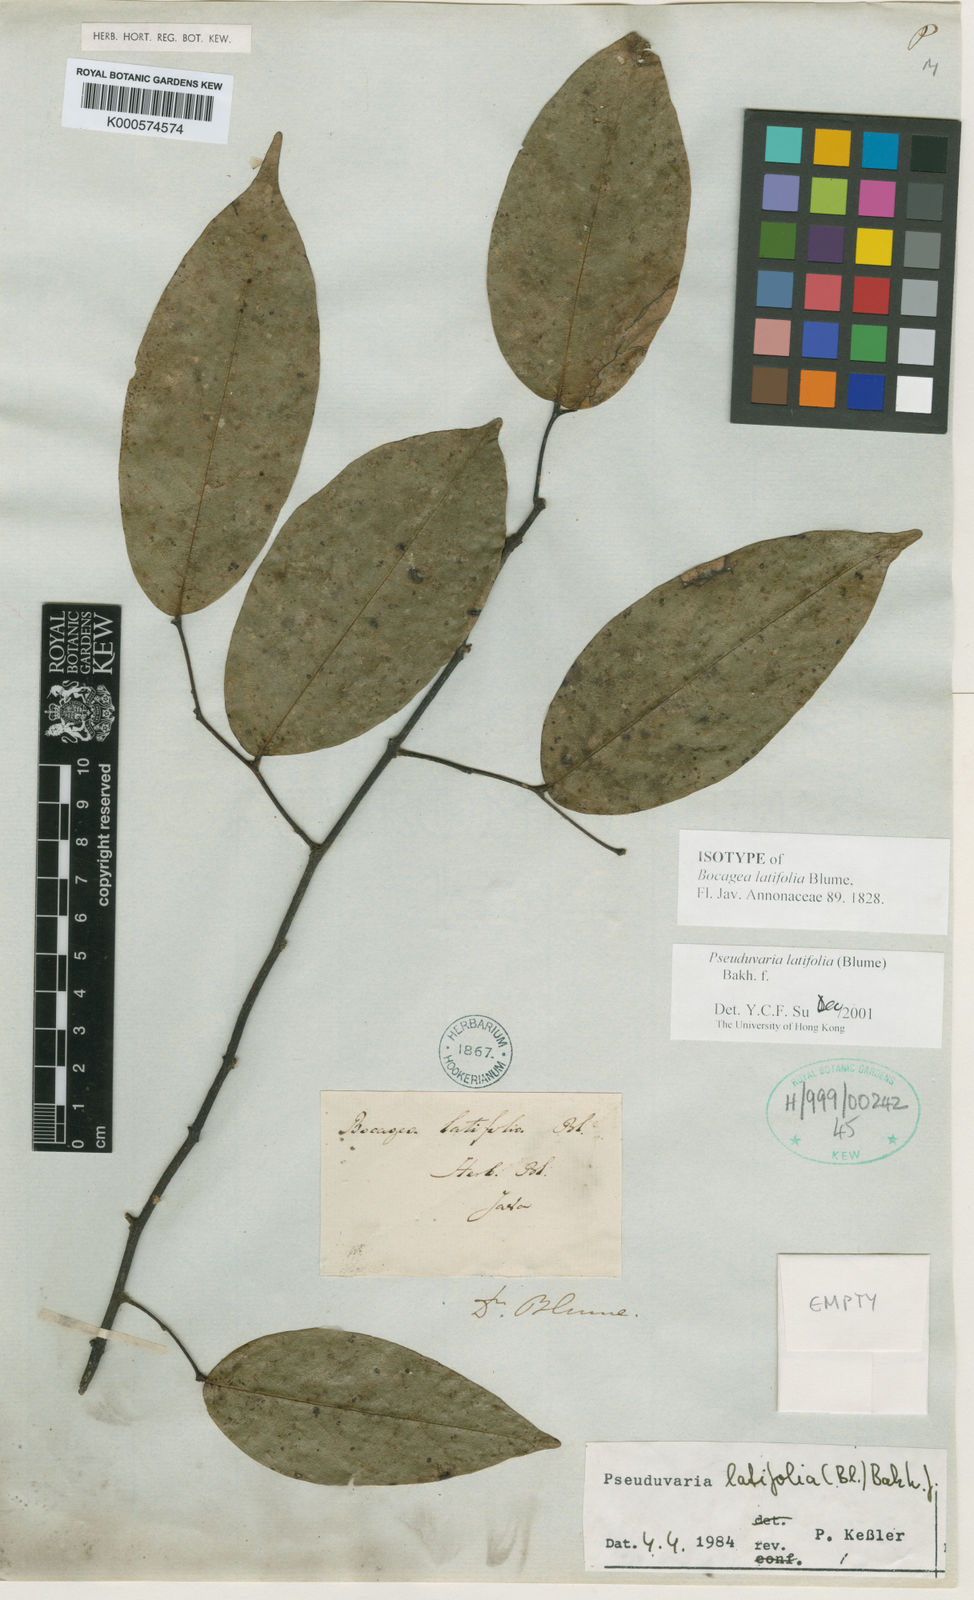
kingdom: Plantae
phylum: Tracheophyta
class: Magnoliopsida
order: Magnoliales
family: Annonaceae
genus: Pseuduvaria
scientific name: Pseuduvaria latifolia
